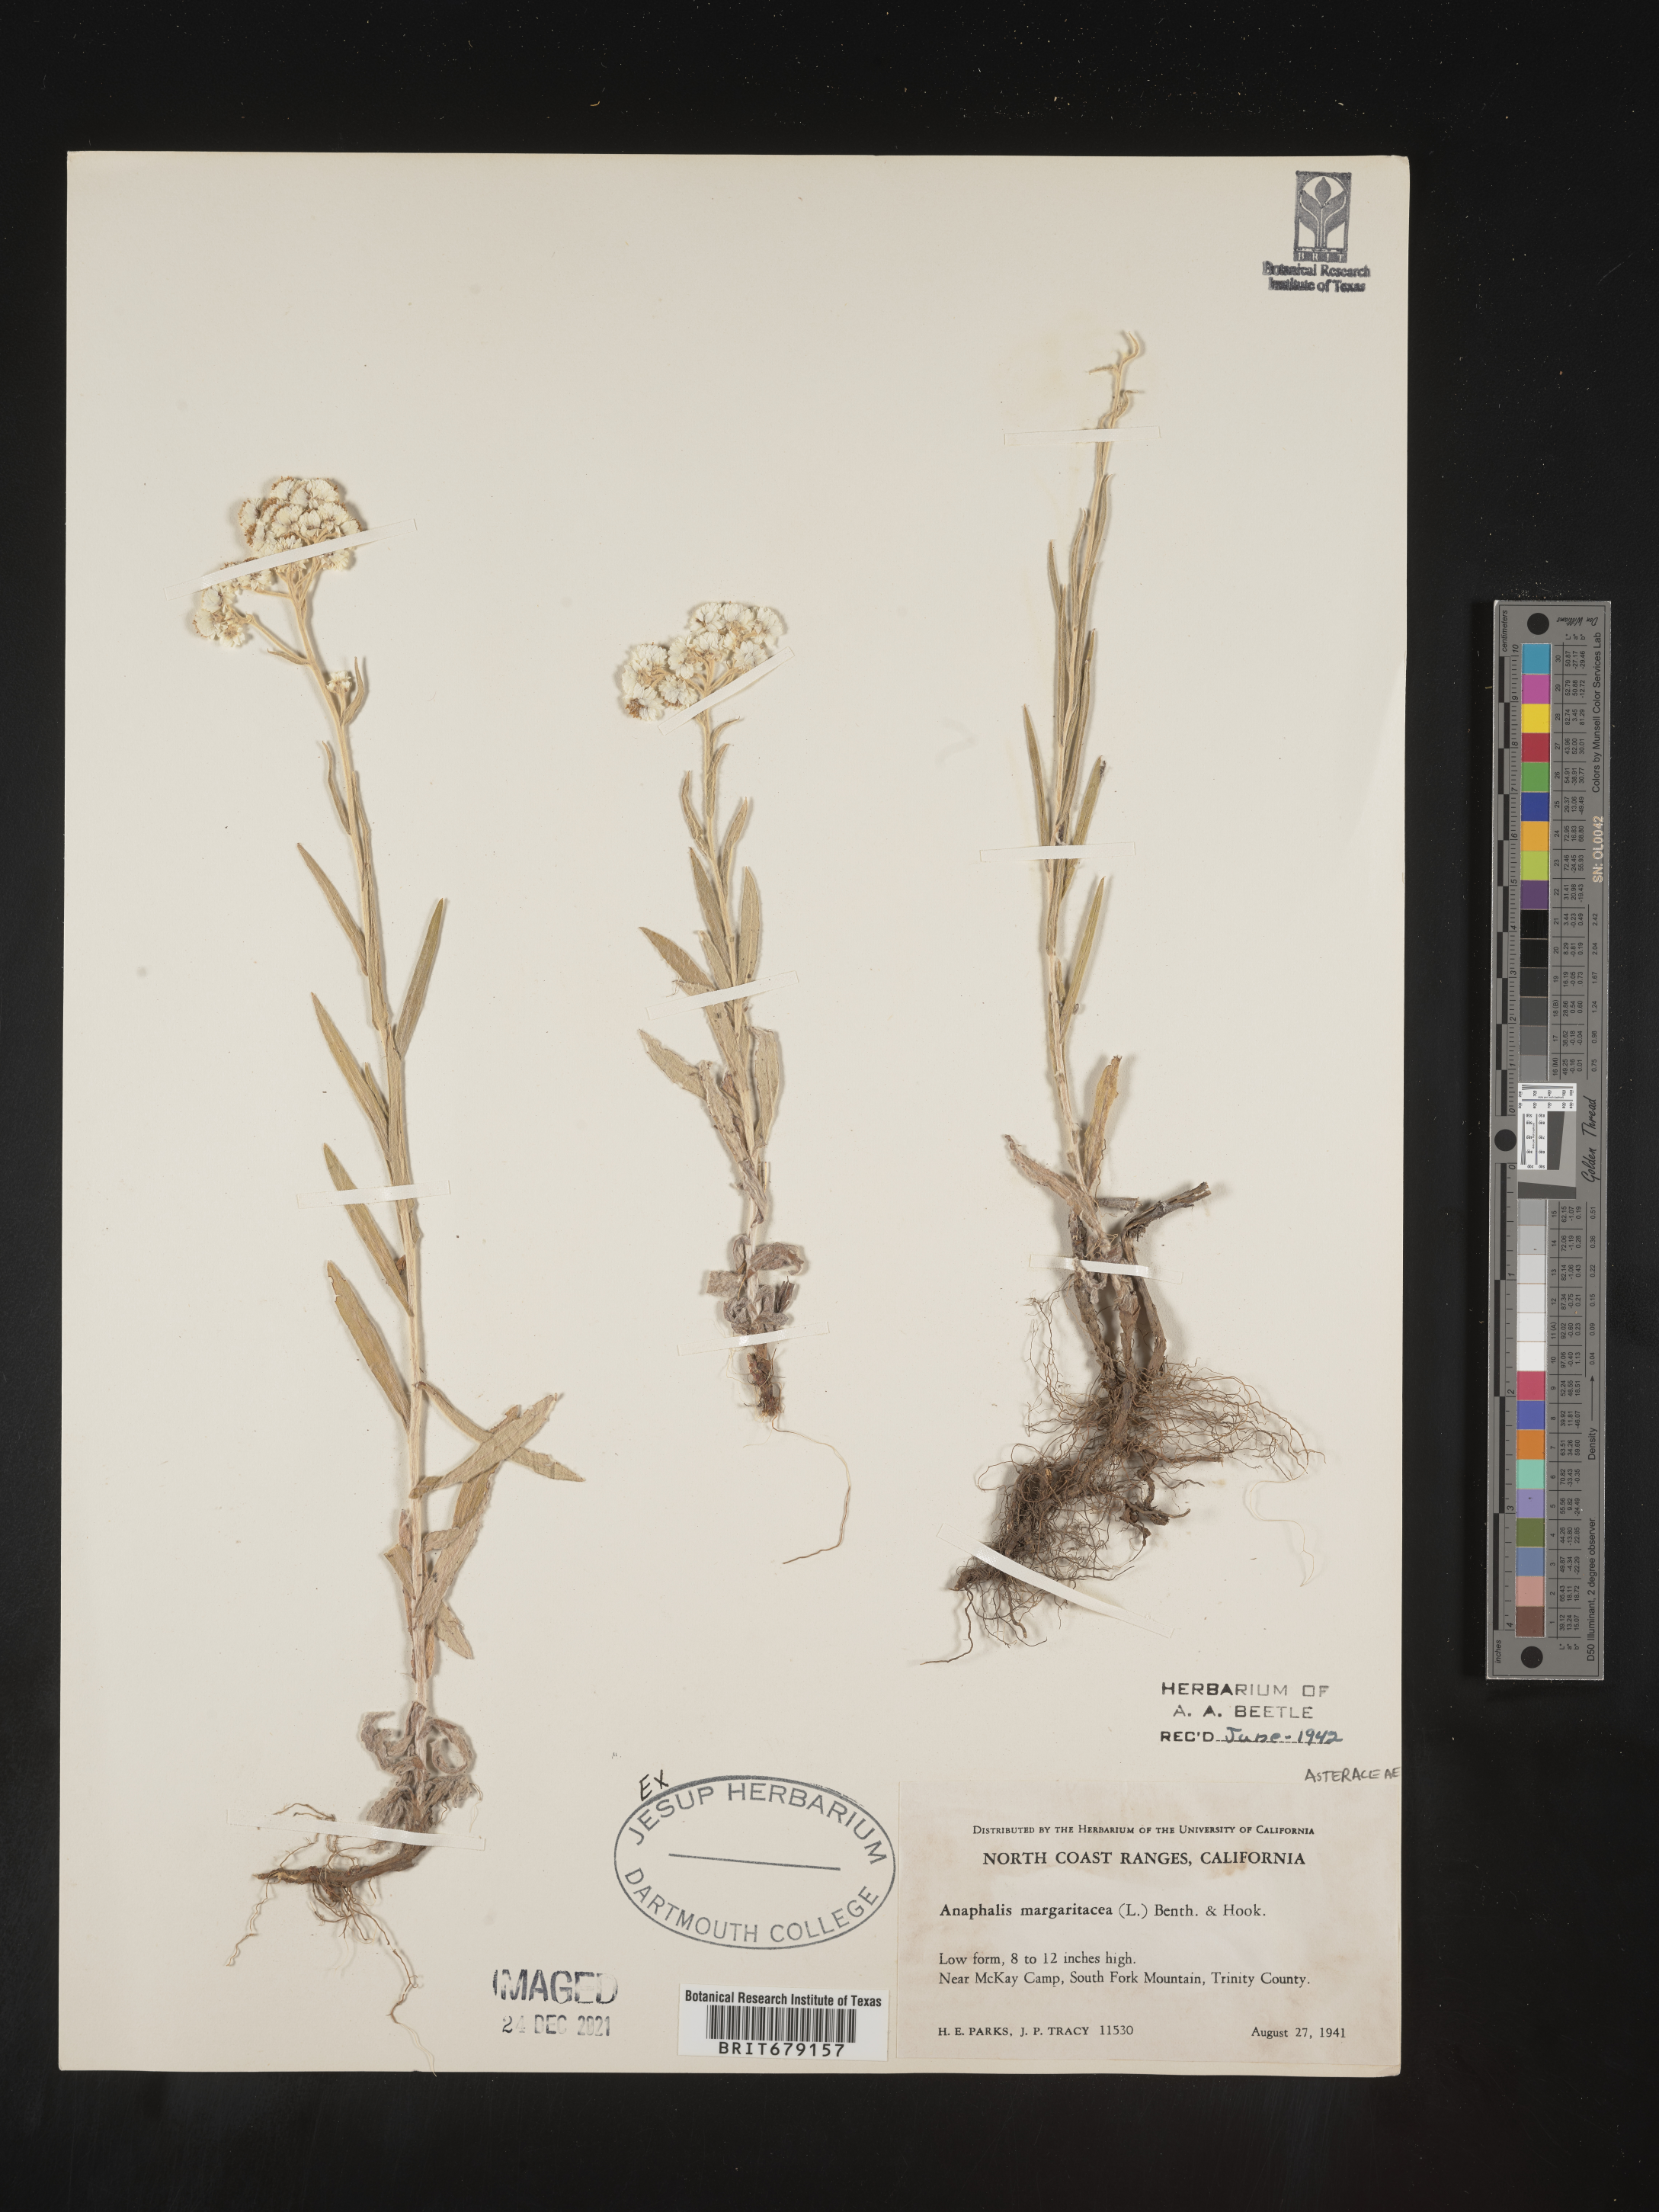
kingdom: Plantae
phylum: Tracheophyta
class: Magnoliopsida
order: Asterales
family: Asteraceae
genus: Anaphalis
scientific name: Anaphalis margaritacea
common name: Pearly everlasting
